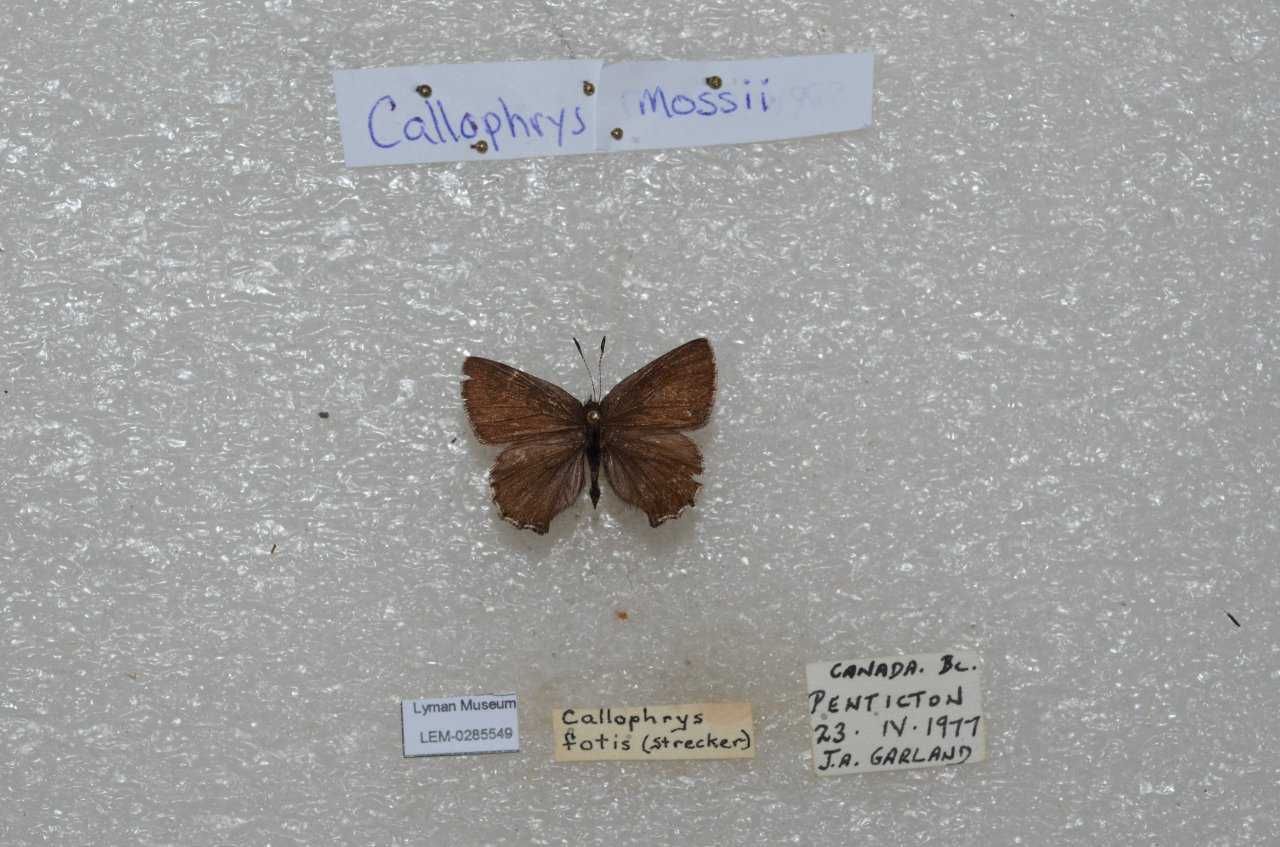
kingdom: Animalia
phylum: Arthropoda
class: Insecta
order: Lepidoptera
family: Lycaenidae
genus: Callophrys
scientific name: Callophrys mossii
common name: Moss' Elfin
